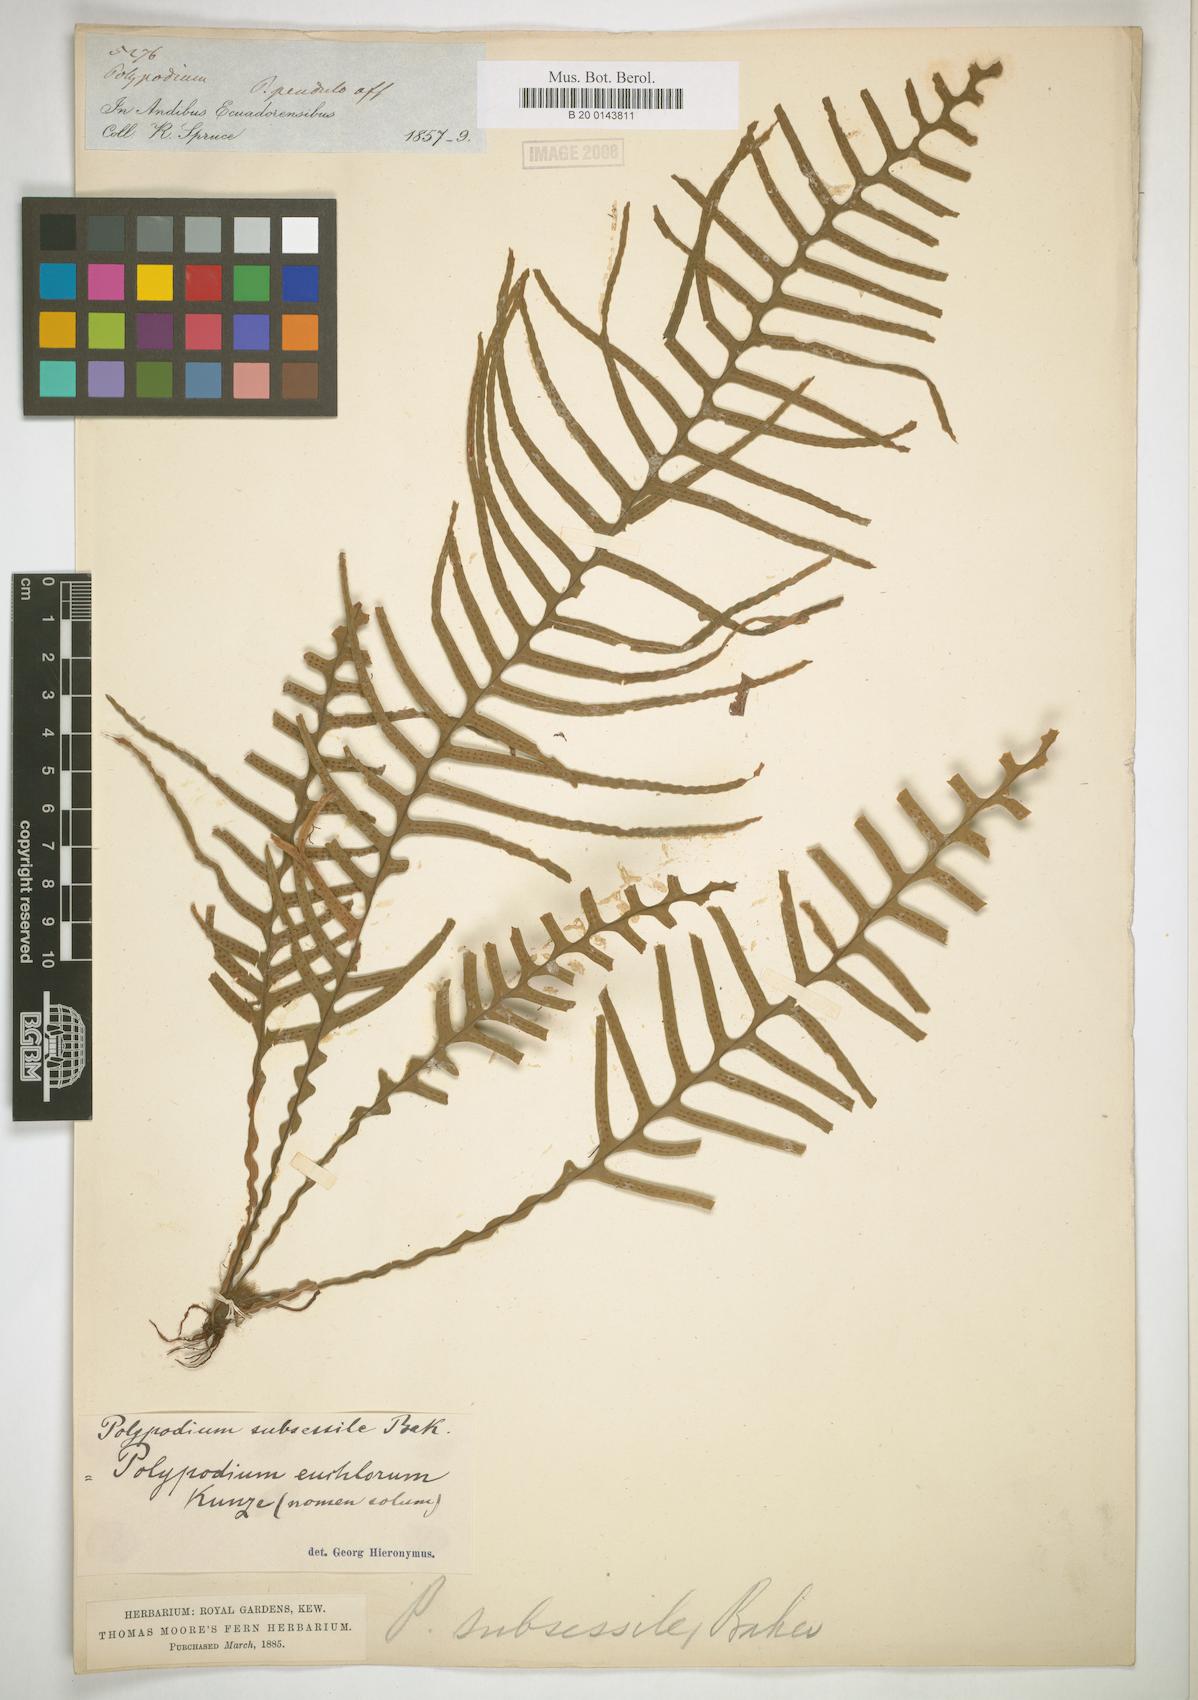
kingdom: Plantae
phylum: Tracheophyta
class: Polypodiopsida
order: Polypodiales
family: Polypodiaceae
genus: Lellingeria
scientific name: Lellingeria subsessilis
